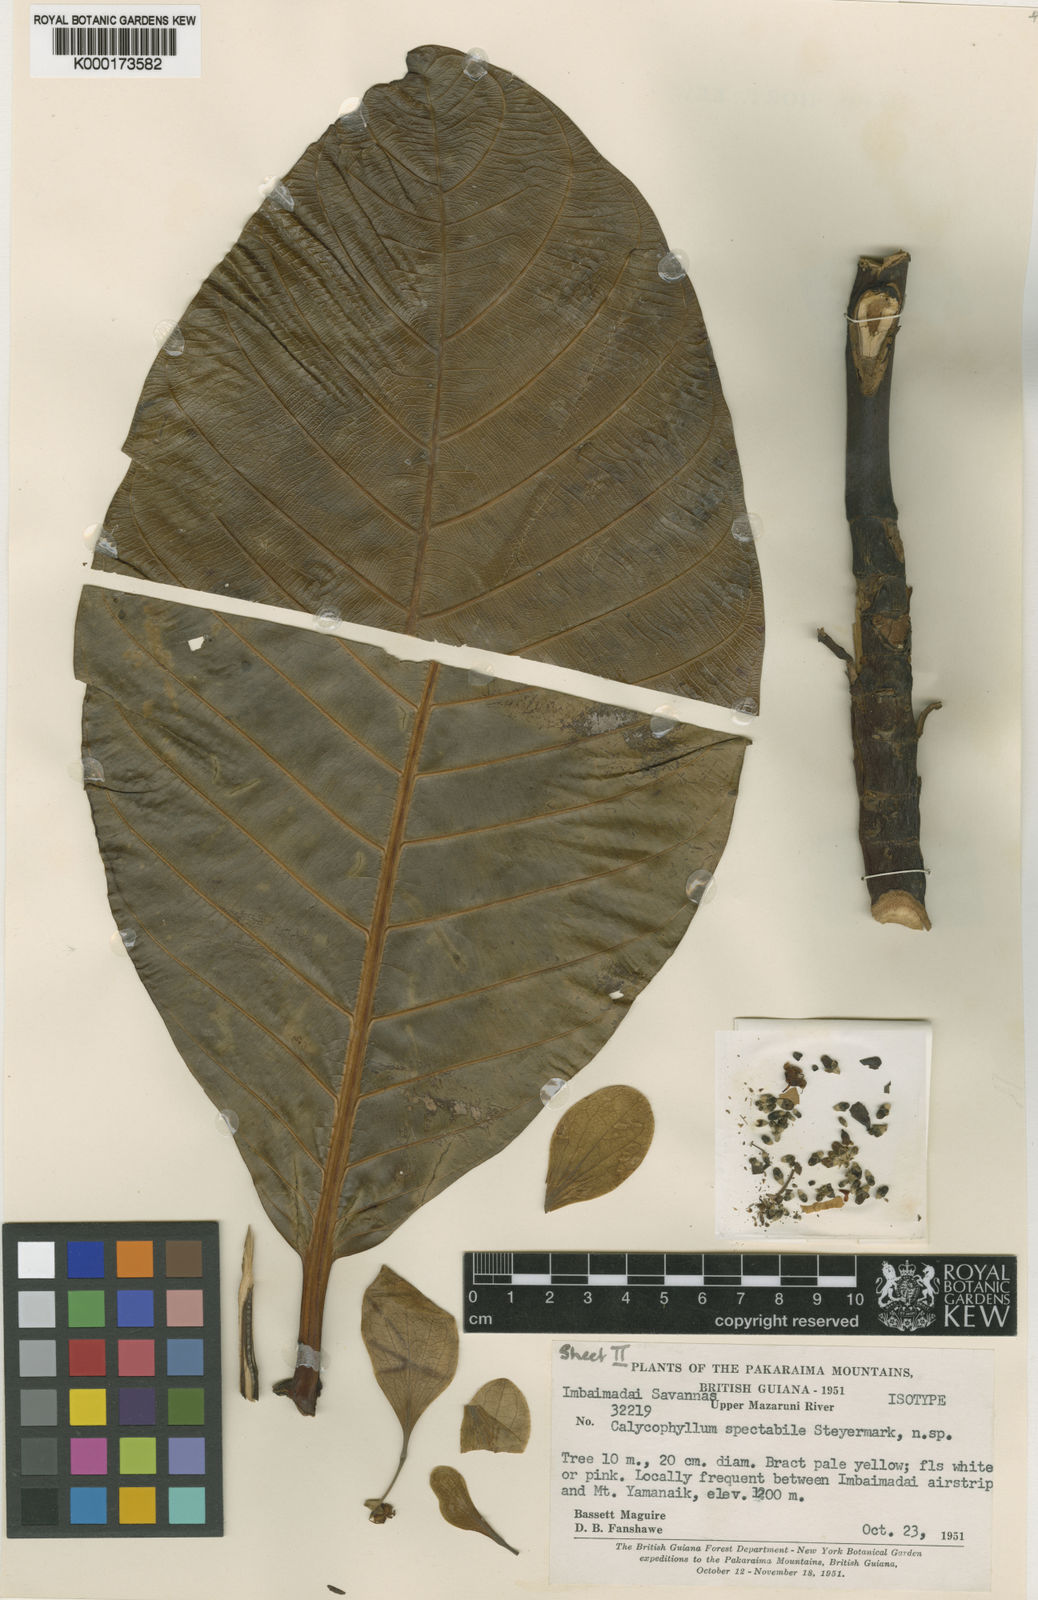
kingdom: Plantae
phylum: Tracheophyta
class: Magnoliopsida
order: Gentianales
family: Rubiaceae
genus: Calycophyllum
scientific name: Calycophyllum spectabile
